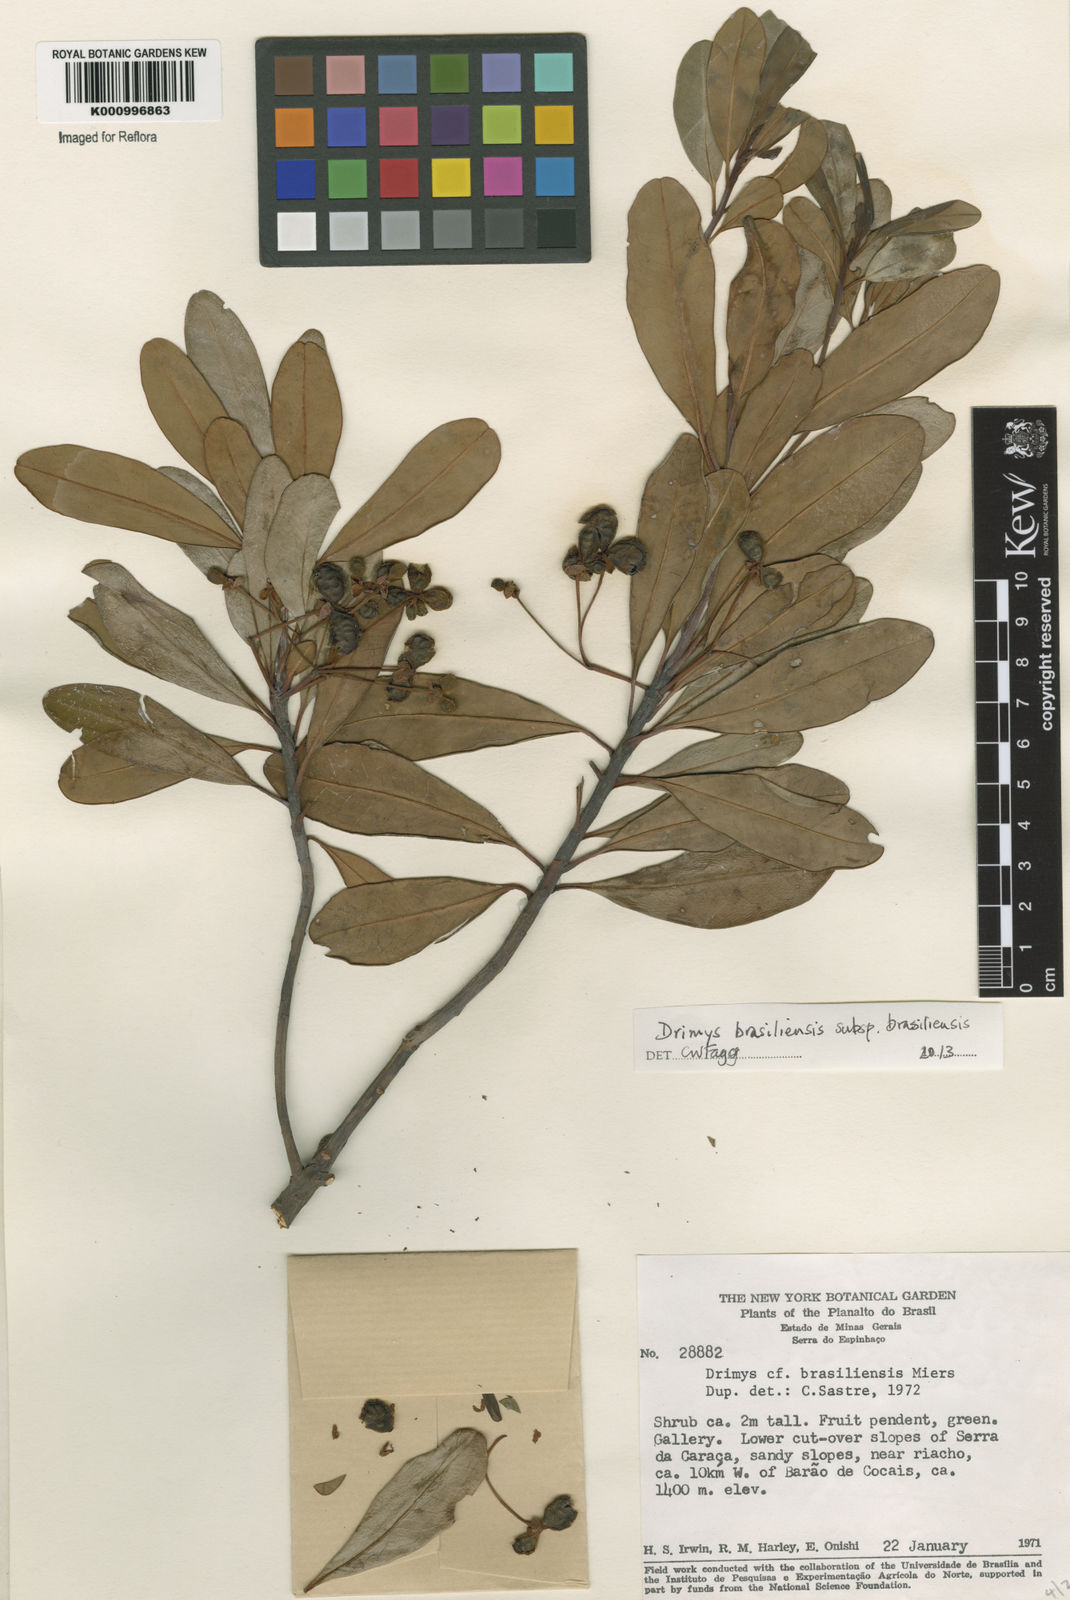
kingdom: Plantae
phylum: Tracheophyta
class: Magnoliopsida
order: Canellales
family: Winteraceae
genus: Drimys
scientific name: Drimys brasiliensis
